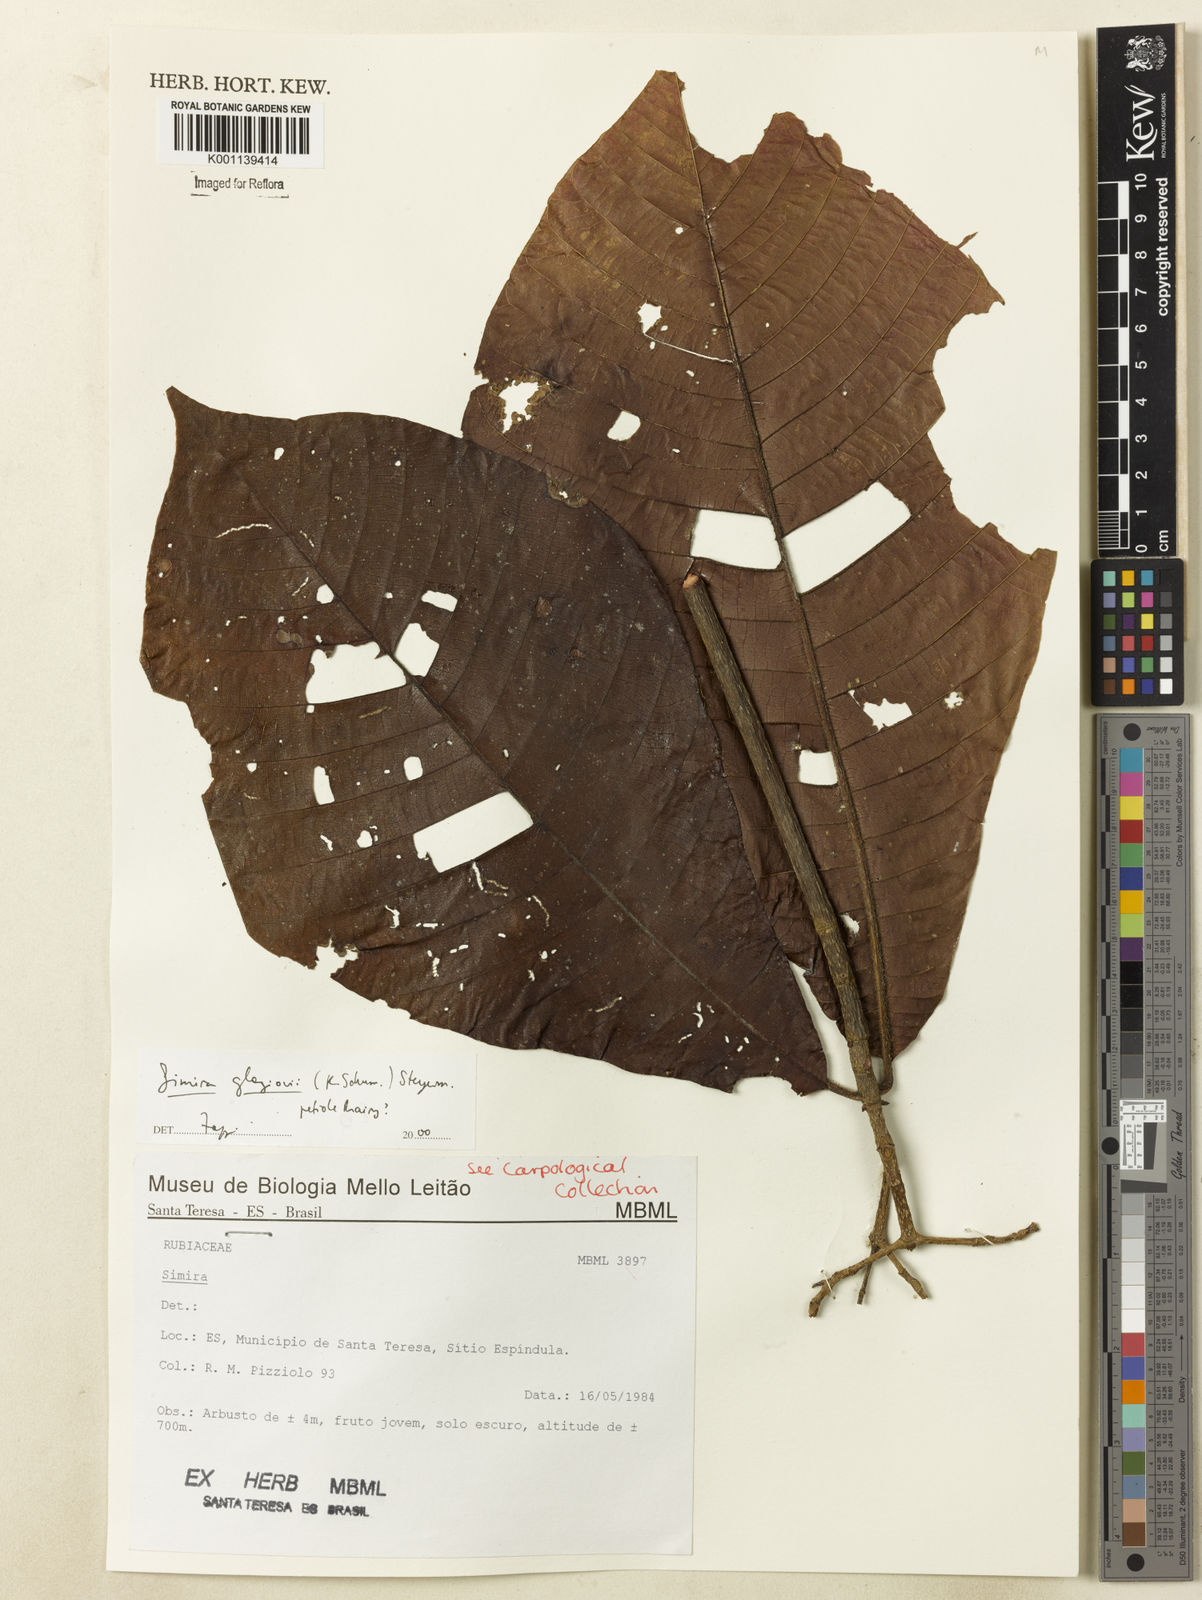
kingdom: Plantae
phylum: Tracheophyta
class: Magnoliopsida
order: Gentianales
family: Rubiaceae
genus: Simira
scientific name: Simira alba
